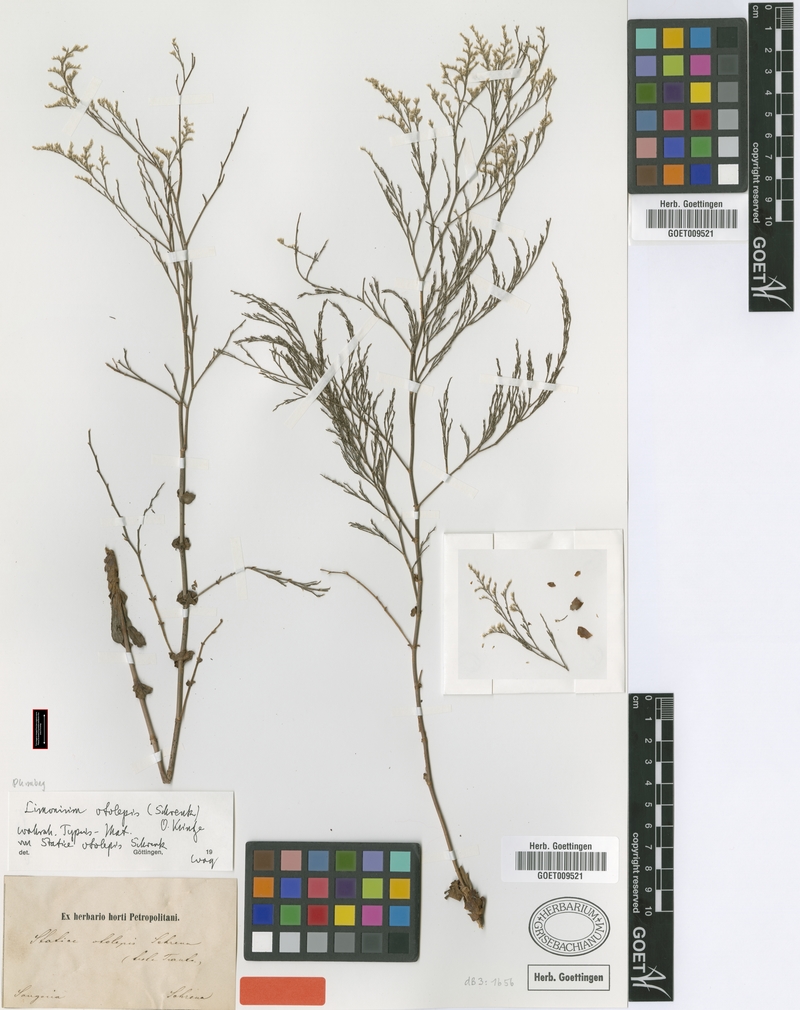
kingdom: Plantae
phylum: Tracheophyta
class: Magnoliopsida
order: Caryophyllales
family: Plumbaginaceae
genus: Limonium
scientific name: Limonium otolepis
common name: Saltmarsh sea lavender
